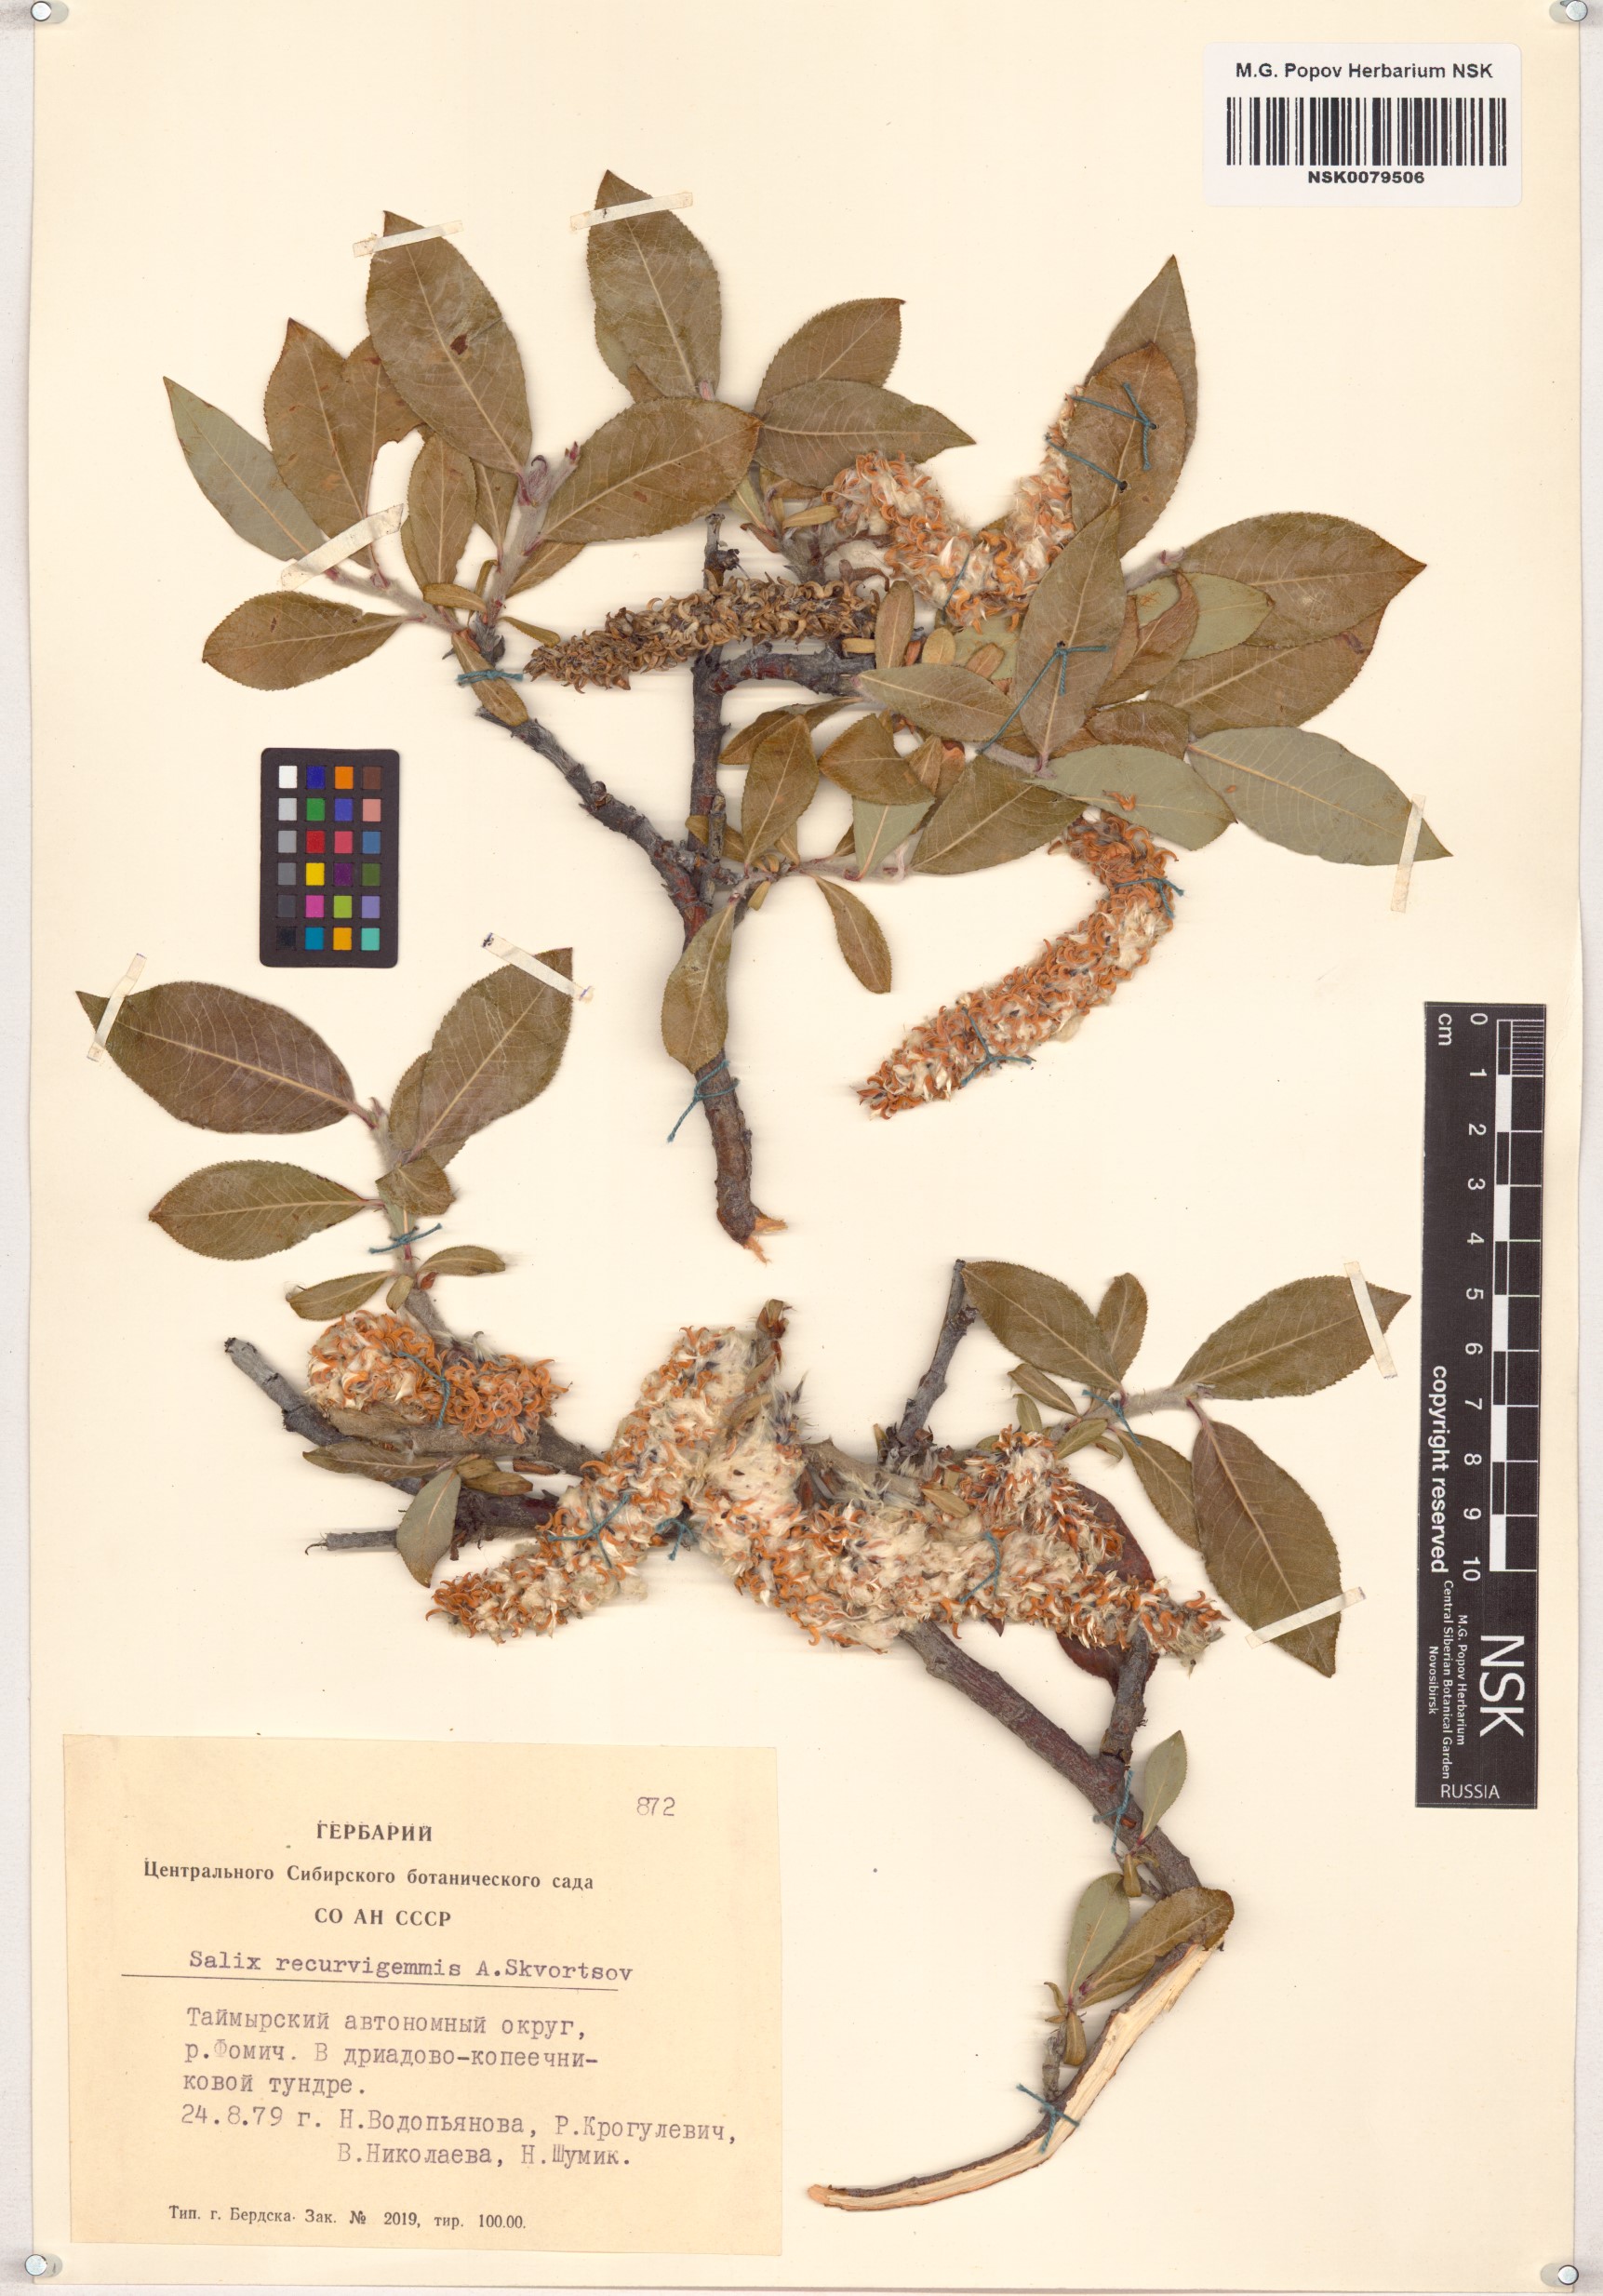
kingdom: Plantae
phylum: Tracheophyta
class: Magnoliopsida
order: Malpighiales
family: Salicaceae
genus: Salix
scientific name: Salix recurvigemmata
